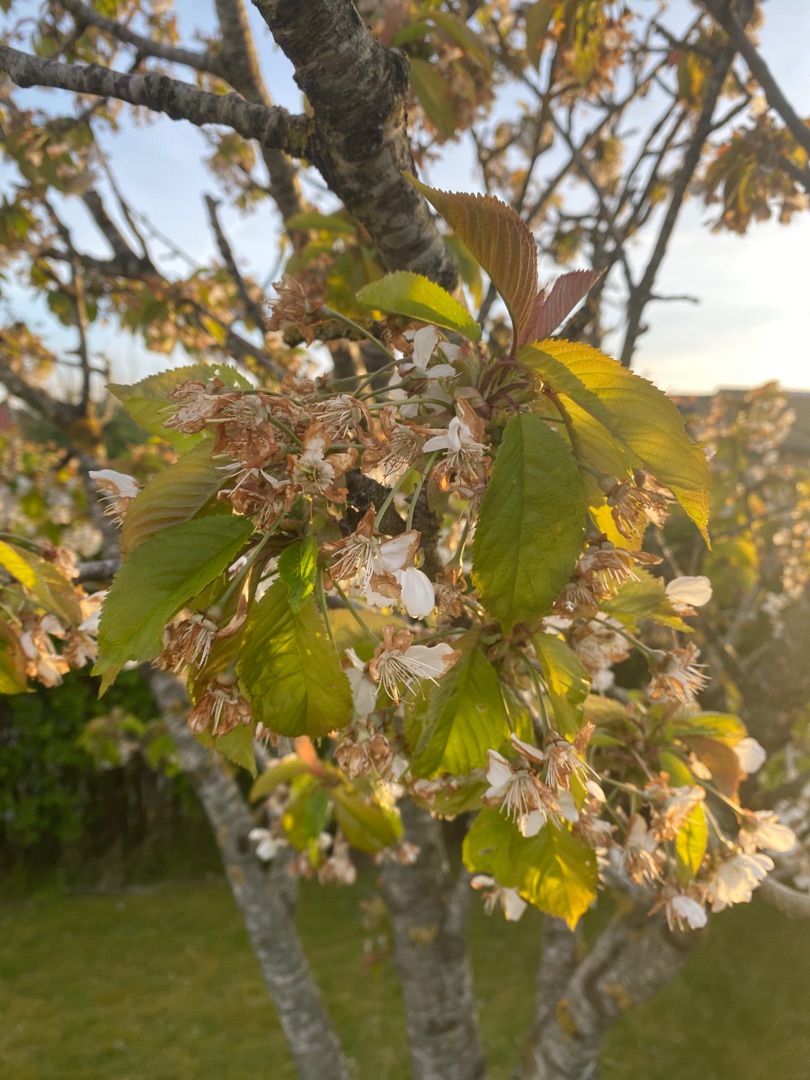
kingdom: Plantae
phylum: Tracheophyta
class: Magnoliopsida
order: Rosales
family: Rosaceae
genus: Prunus
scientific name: Prunus avium
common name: Fugle-kirsebær
